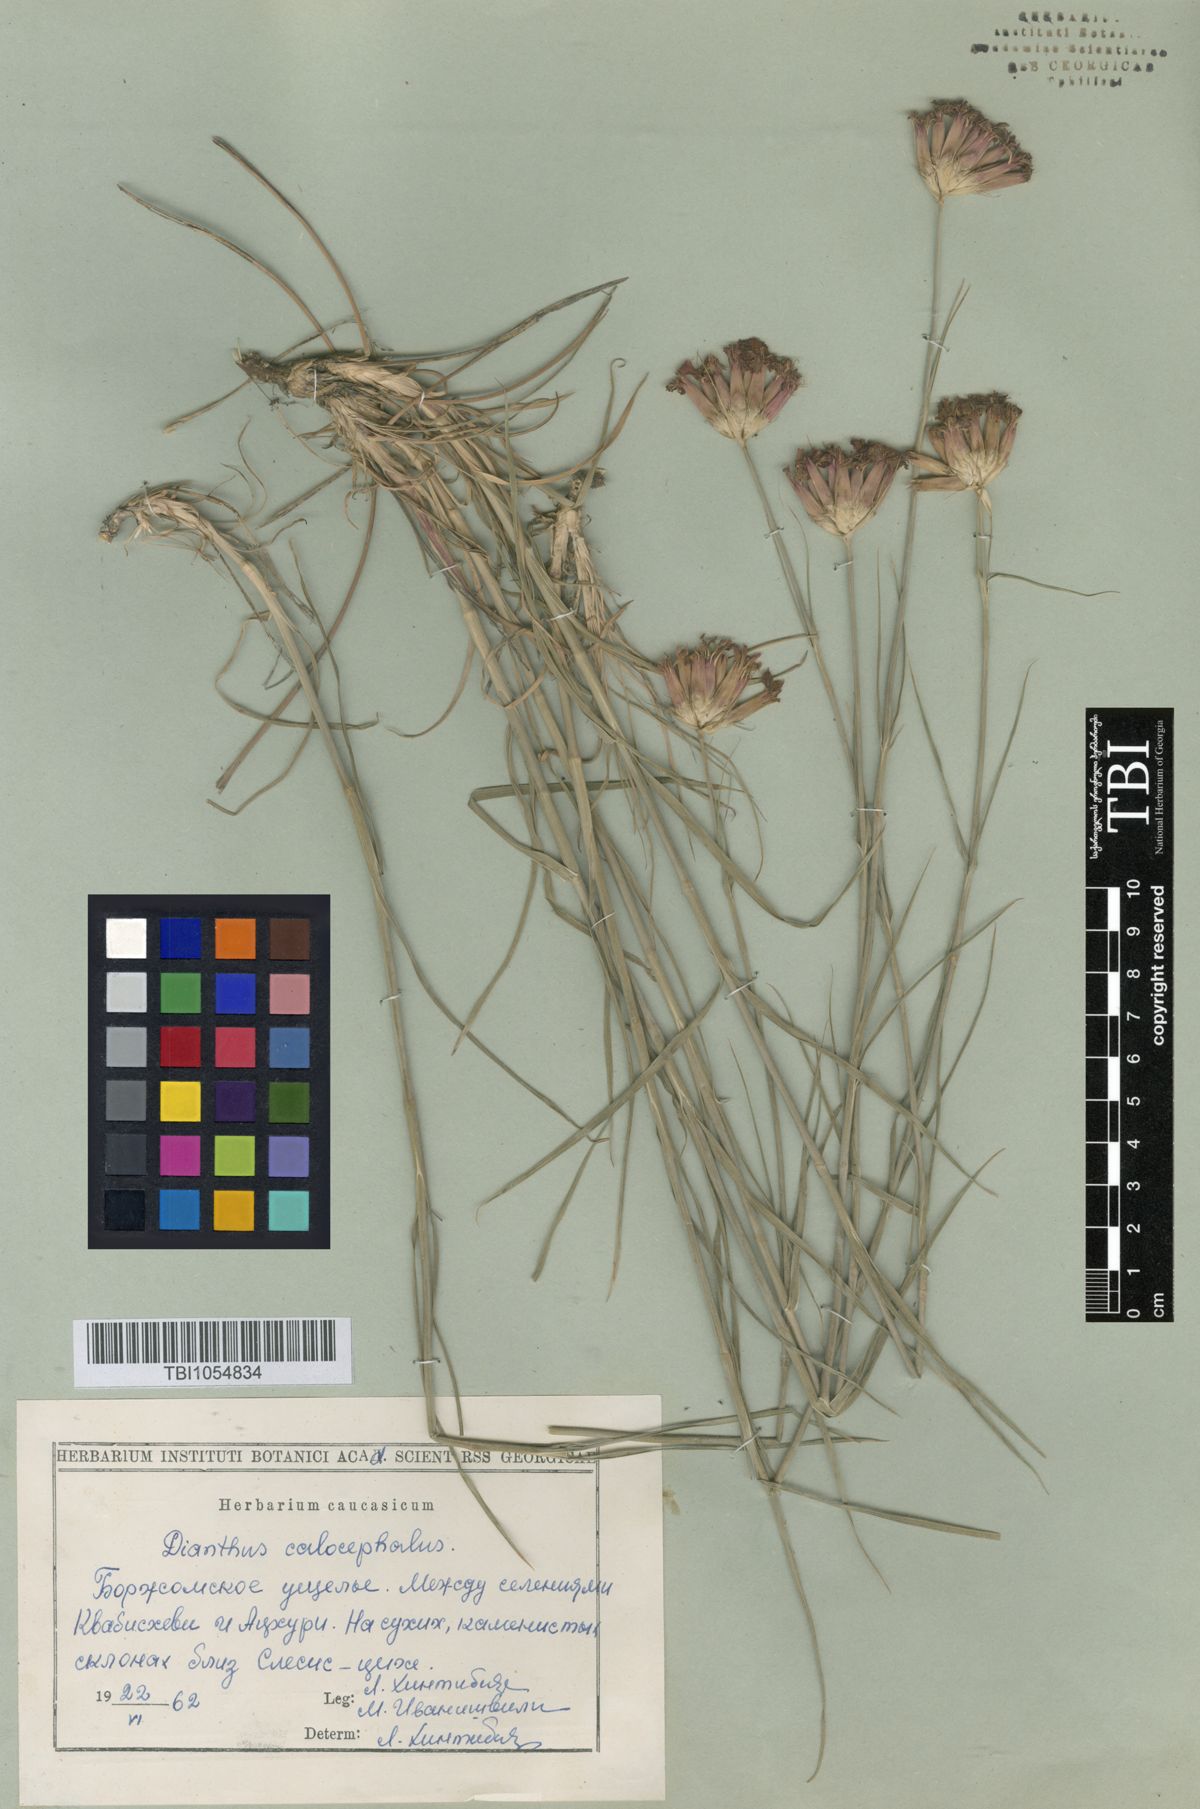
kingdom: Plantae
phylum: Tracheophyta
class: Magnoliopsida
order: Caryophyllales
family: Caryophyllaceae
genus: Dianthus
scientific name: Dianthus cruentus
